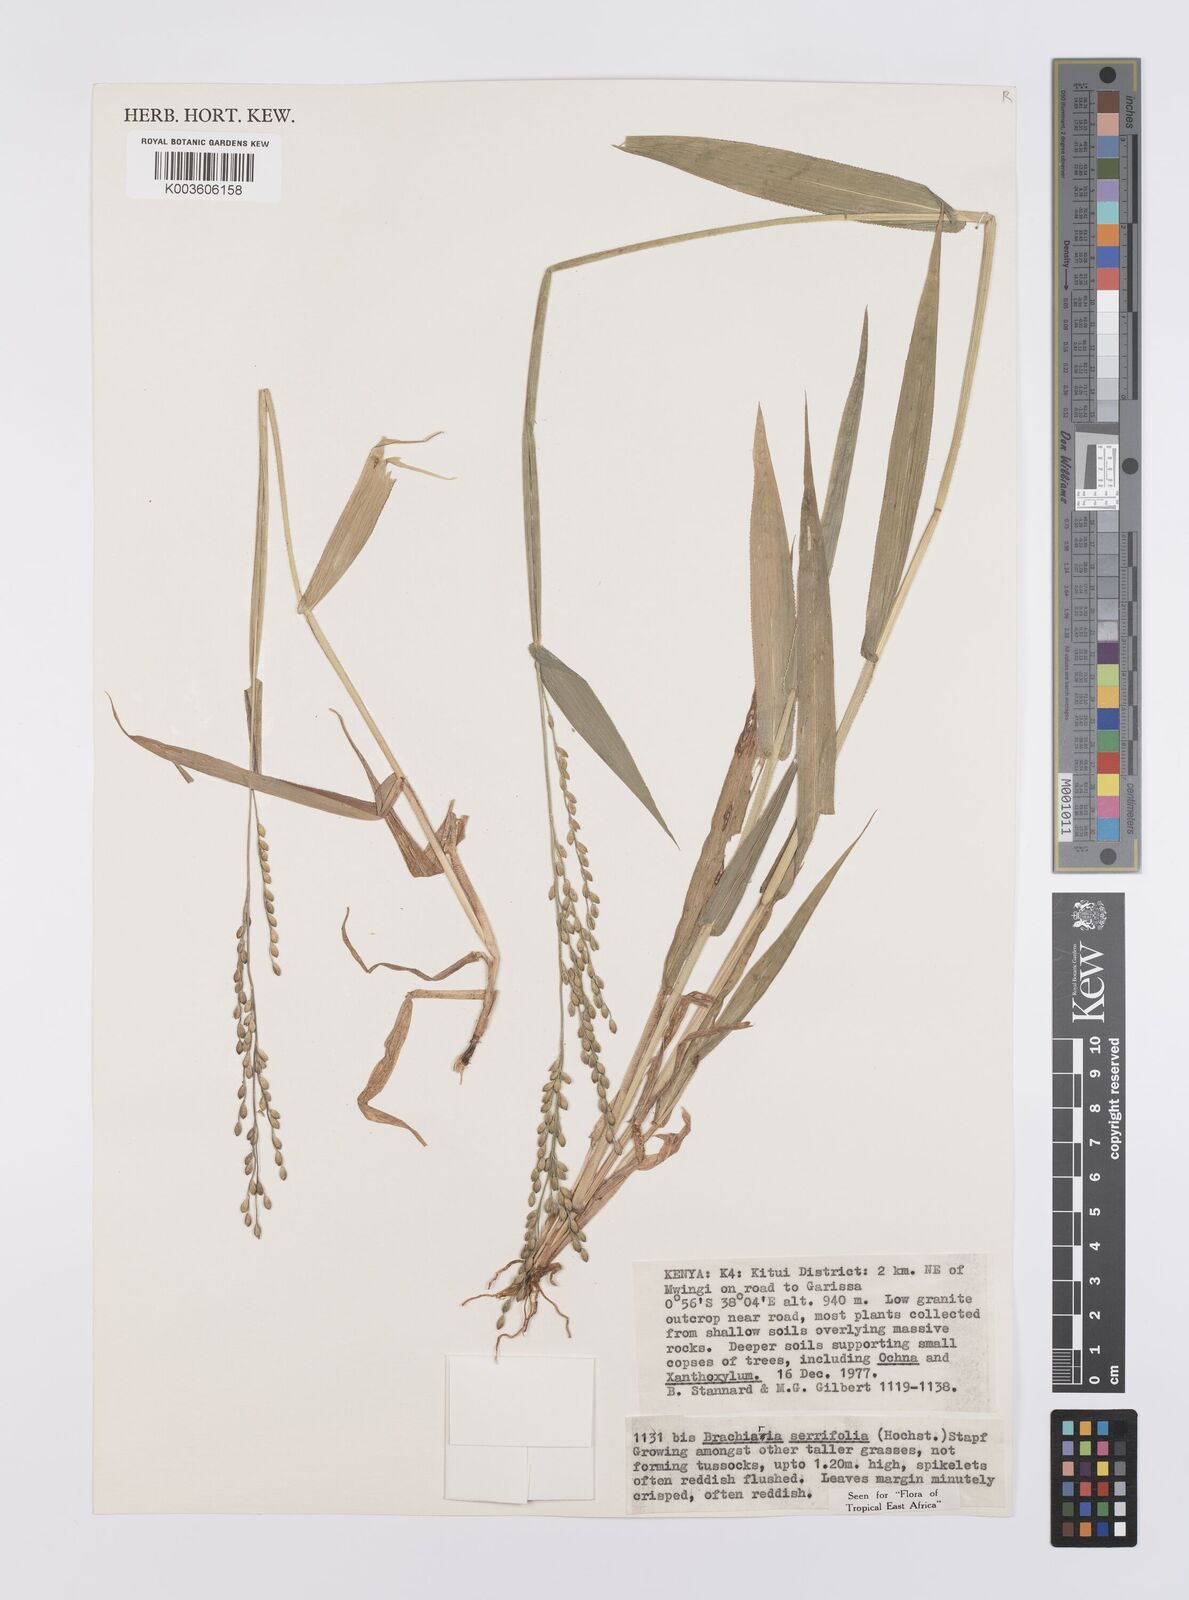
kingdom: Plantae
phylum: Tracheophyta
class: Liliopsida
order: Poales
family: Poaceae
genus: Urochloa
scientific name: Urochloa serrifolia
